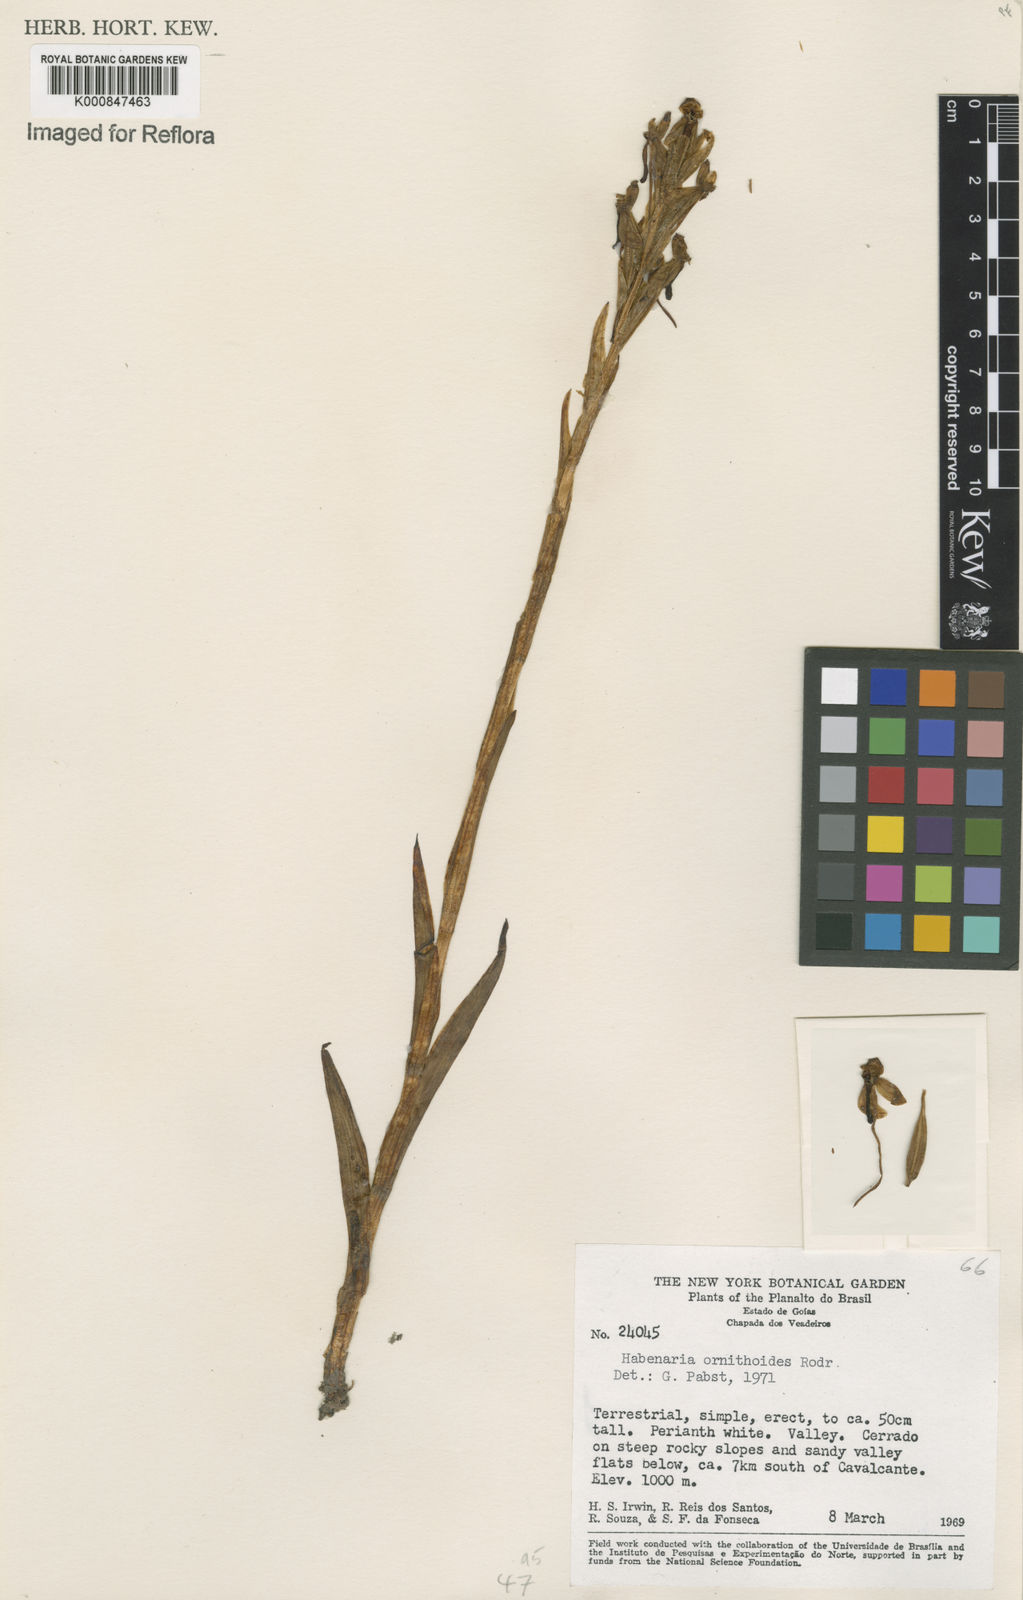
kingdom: Plantae
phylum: Tracheophyta
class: Liliopsida
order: Asparagales
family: Orchidaceae
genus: Habenaria
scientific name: Habenaria obtusa
